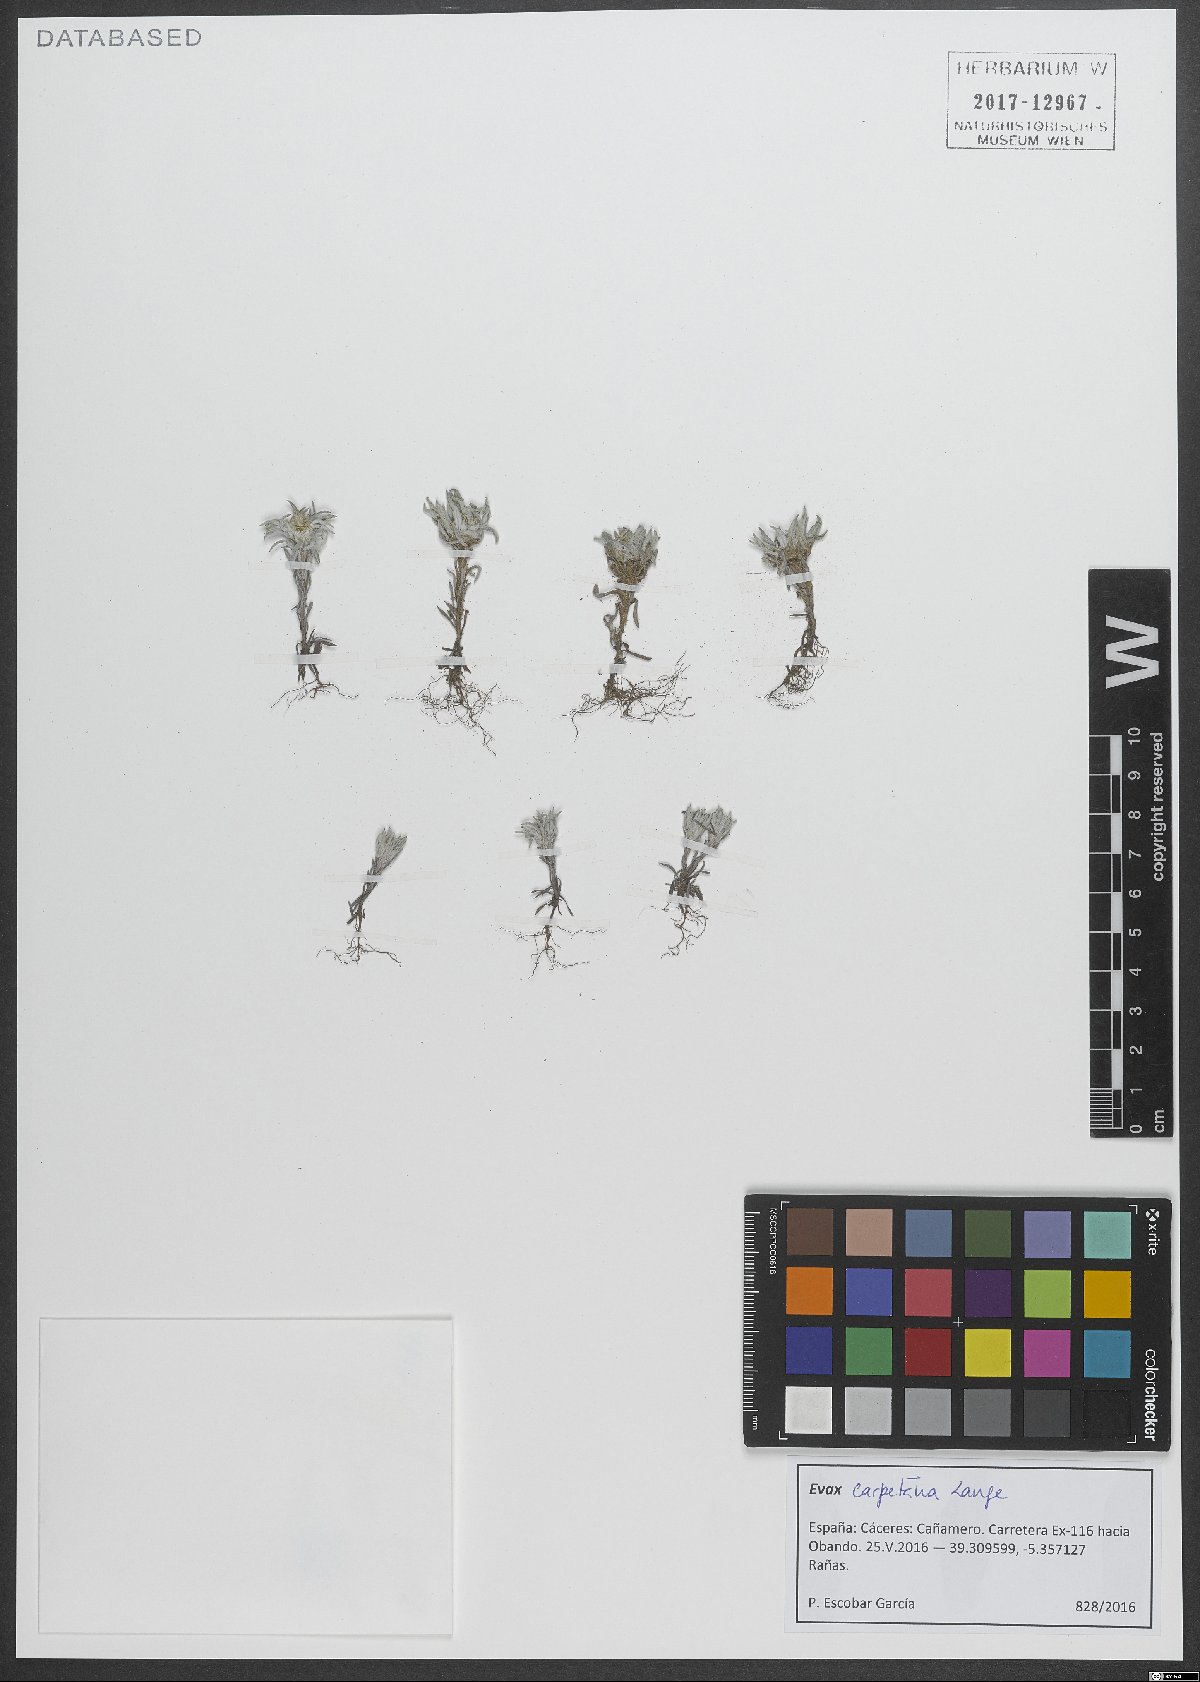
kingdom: Plantae
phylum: Tracheophyta
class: Magnoliopsida
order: Asterales
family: Asteraceae
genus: Filago
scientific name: Filago carpetana
